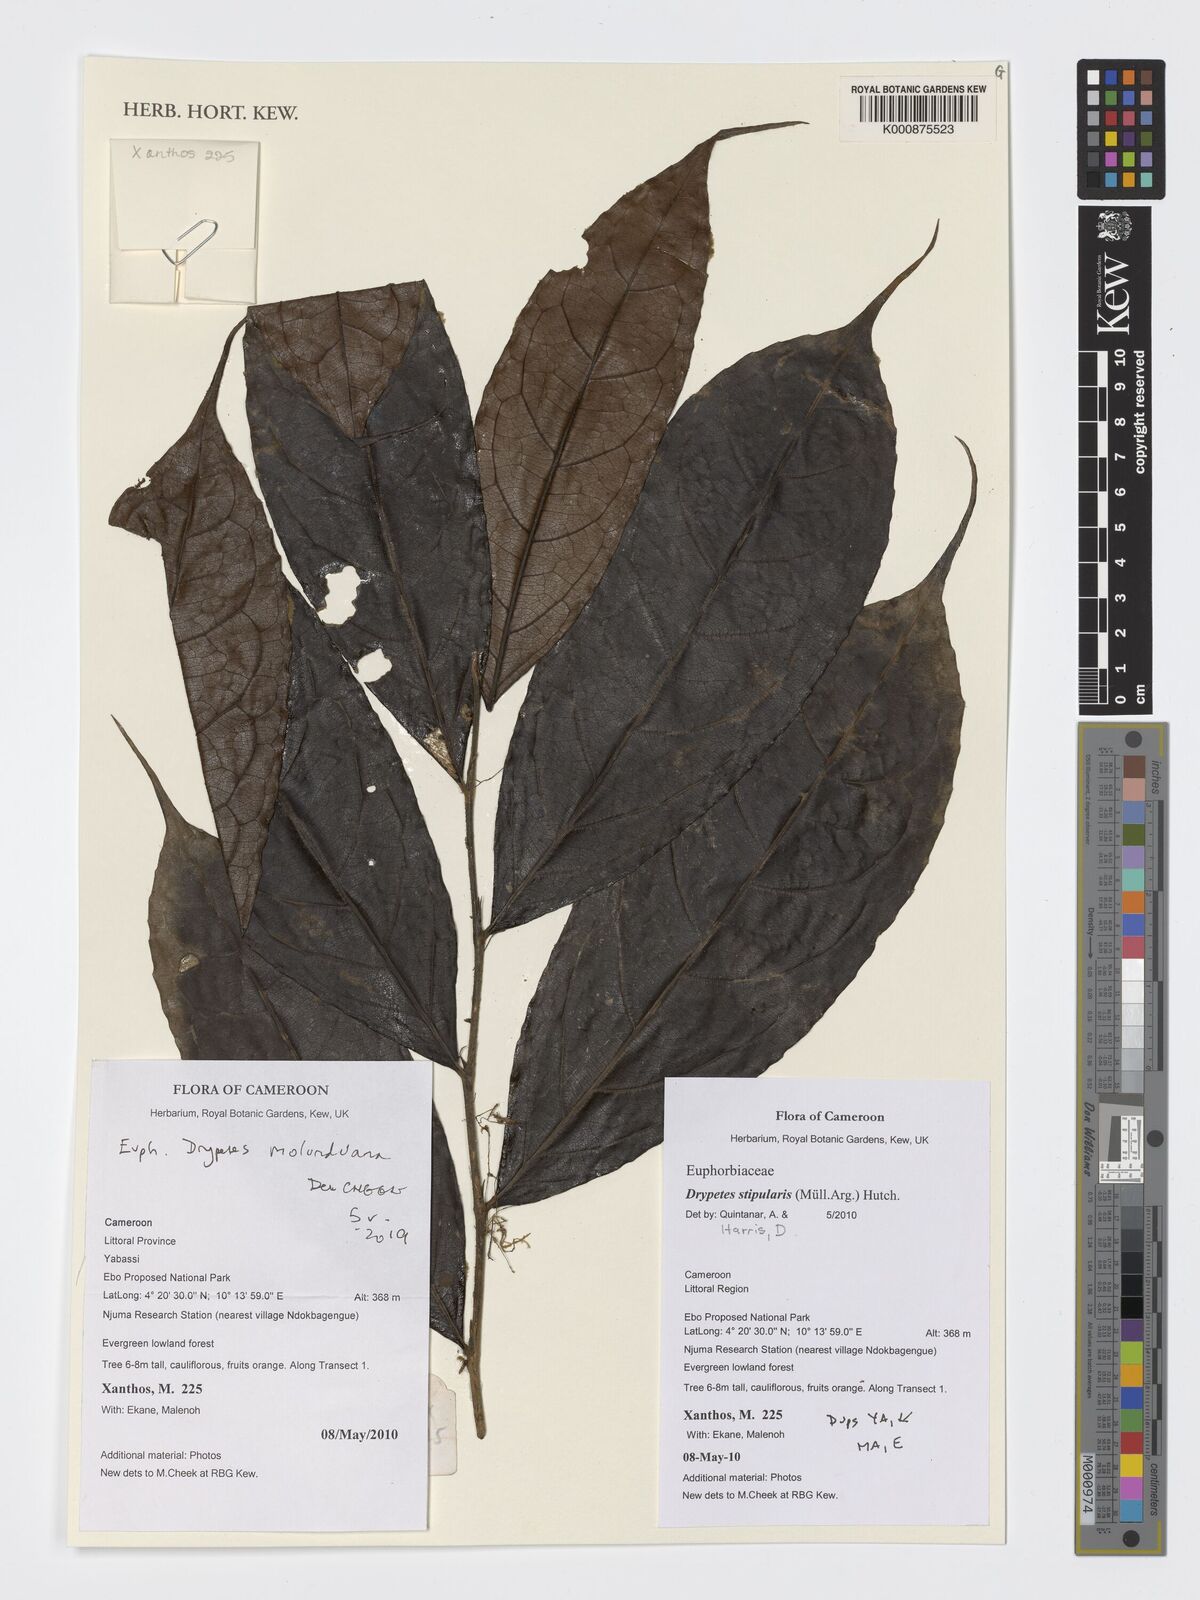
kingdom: Plantae
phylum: Tracheophyta
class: Magnoliopsida
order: Malpighiales
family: Putranjivaceae
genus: Drypetes
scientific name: Drypetes molunduana
